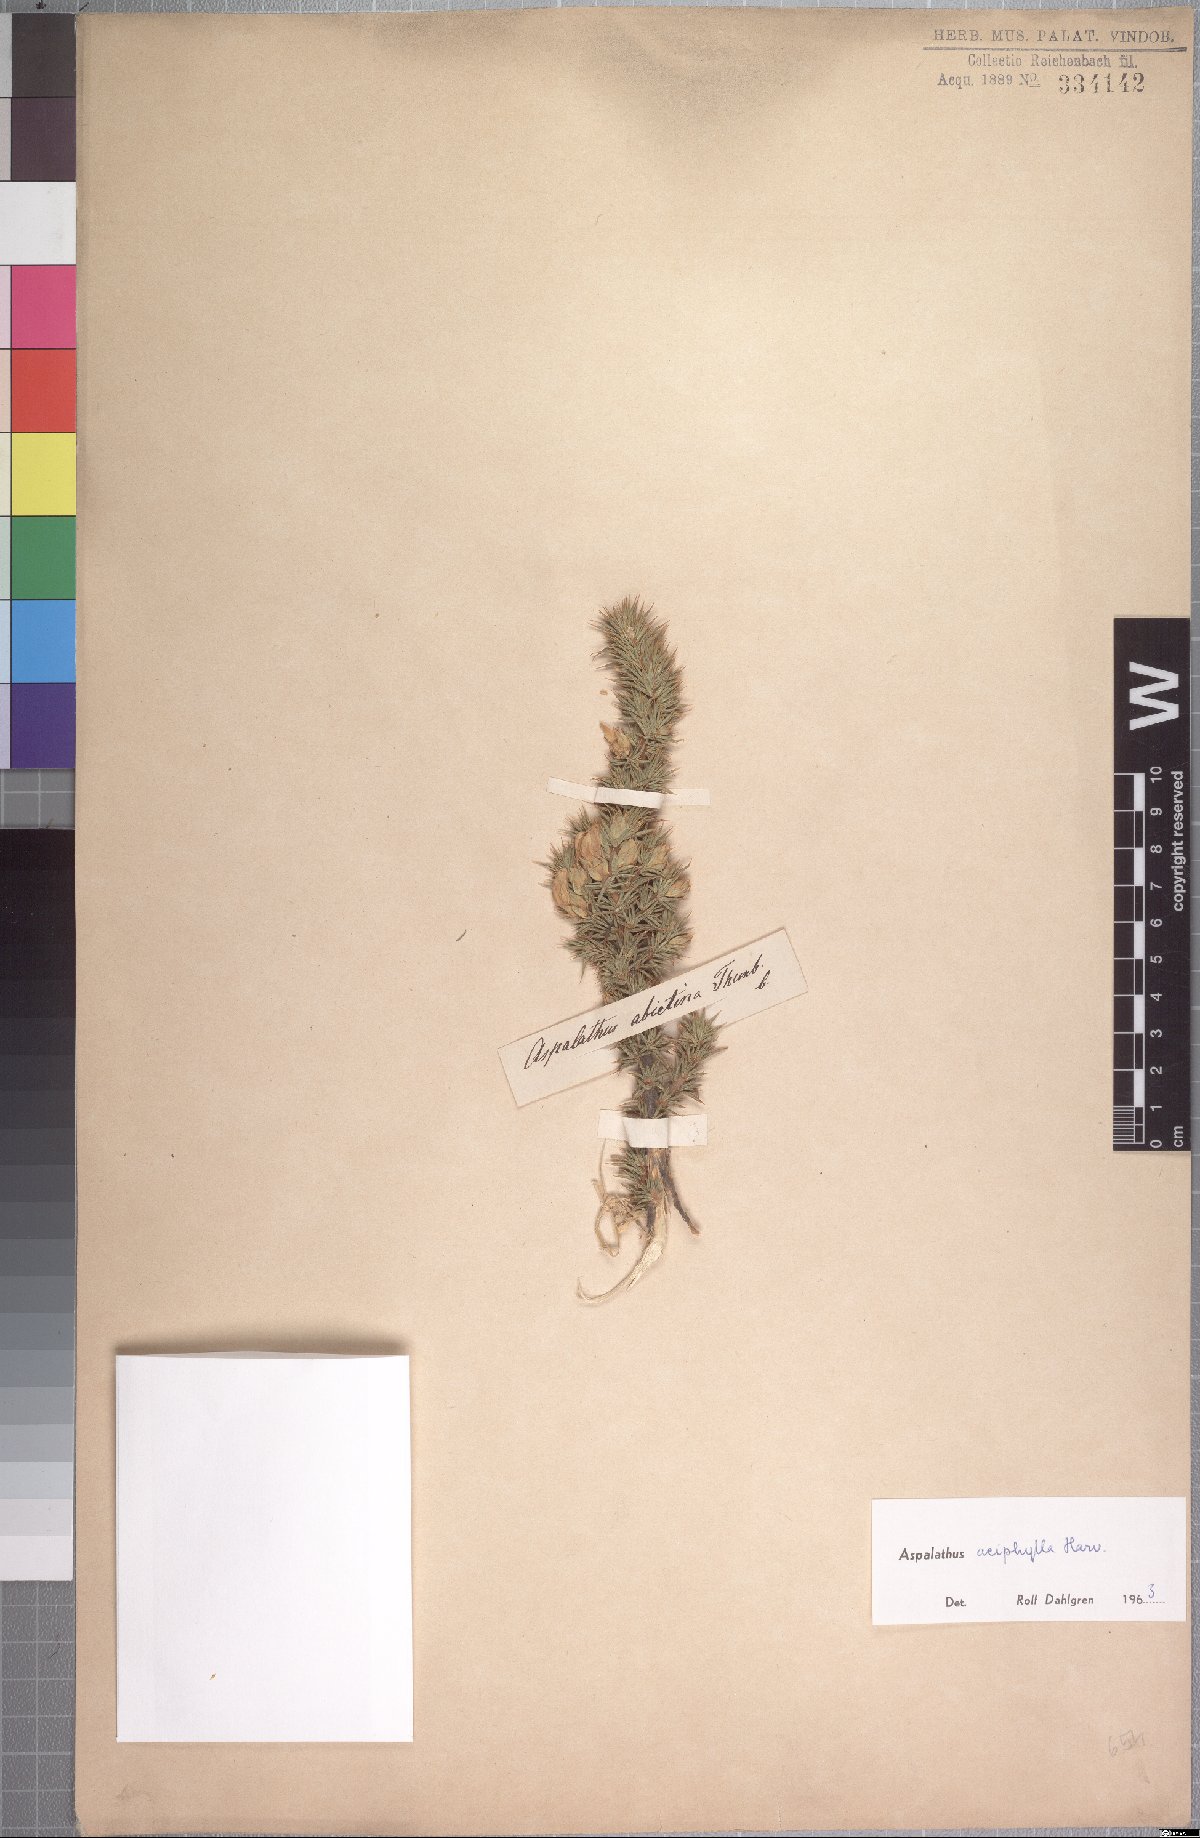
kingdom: Plantae
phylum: Tracheophyta
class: Magnoliopsida
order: Fabales
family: Fabaceae
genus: Aspalathus
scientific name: Aspalathus aciphylla
